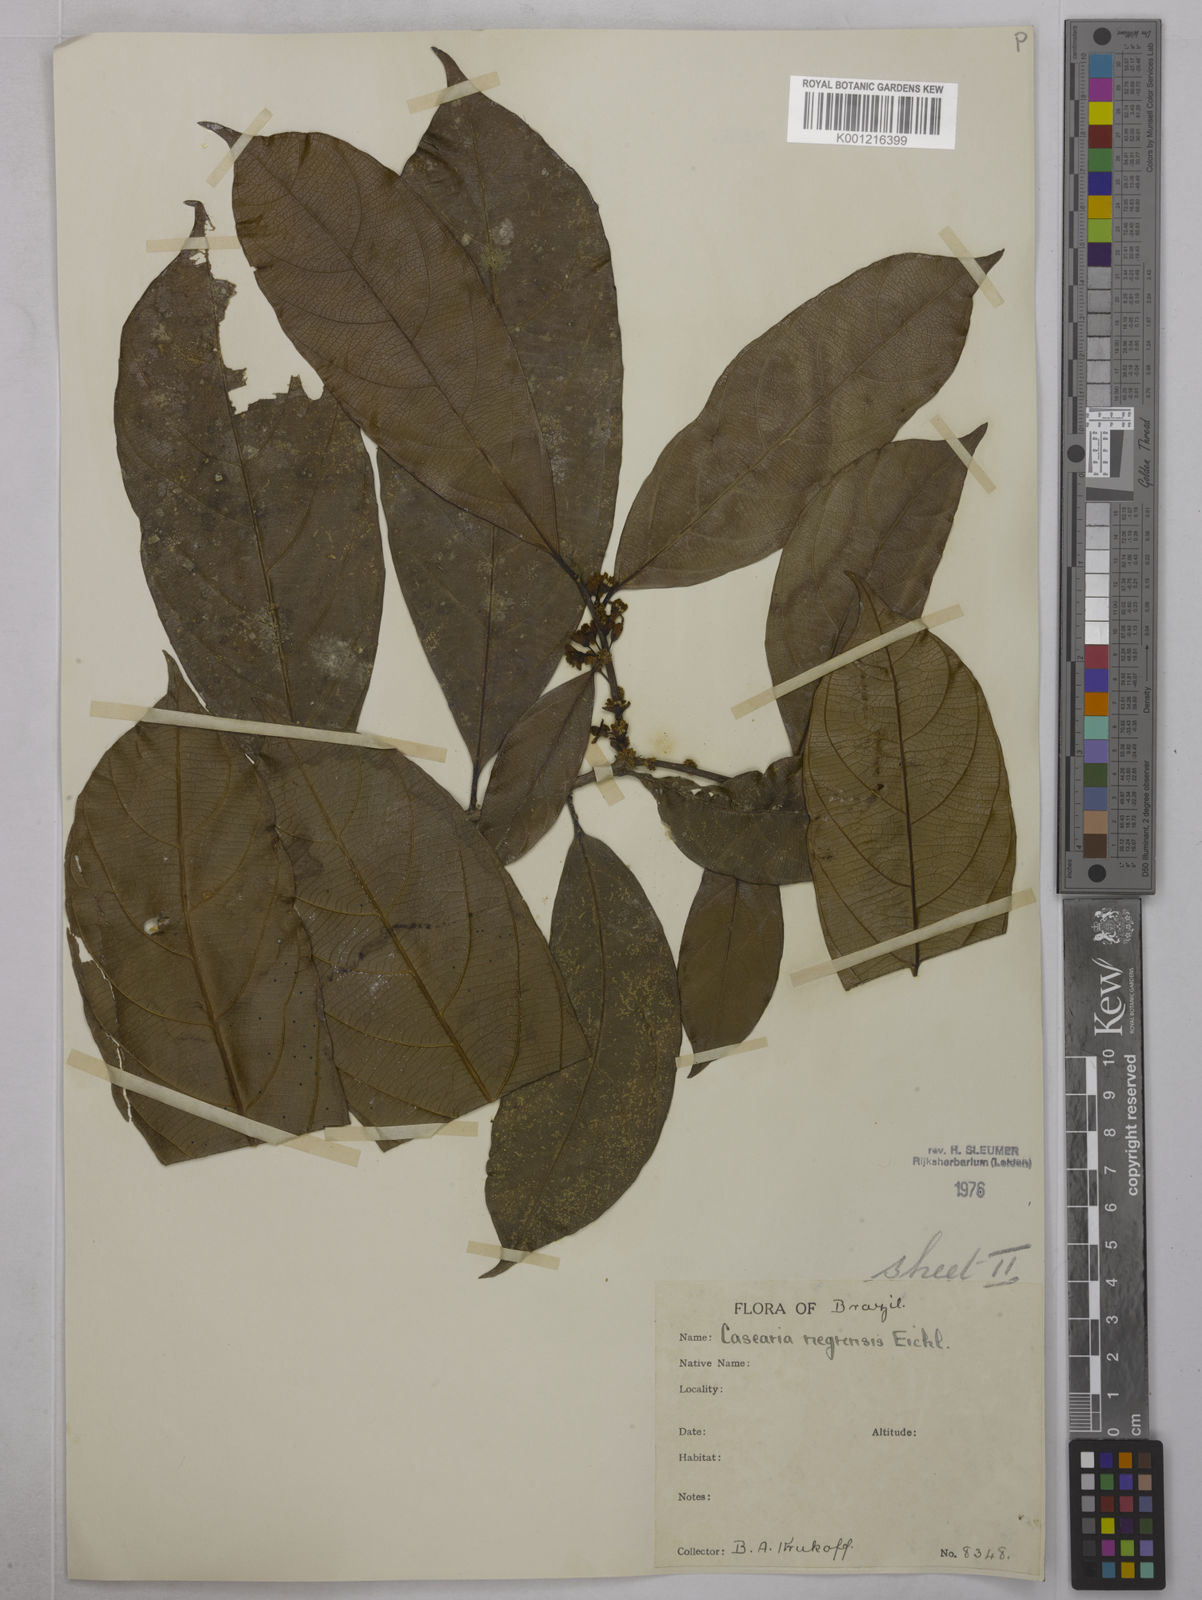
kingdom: Plantae
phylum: Tracheophyta
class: Magnoliopsida
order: Malpighiales
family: Salicaceae
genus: Casearia
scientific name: Casearia negrensis
